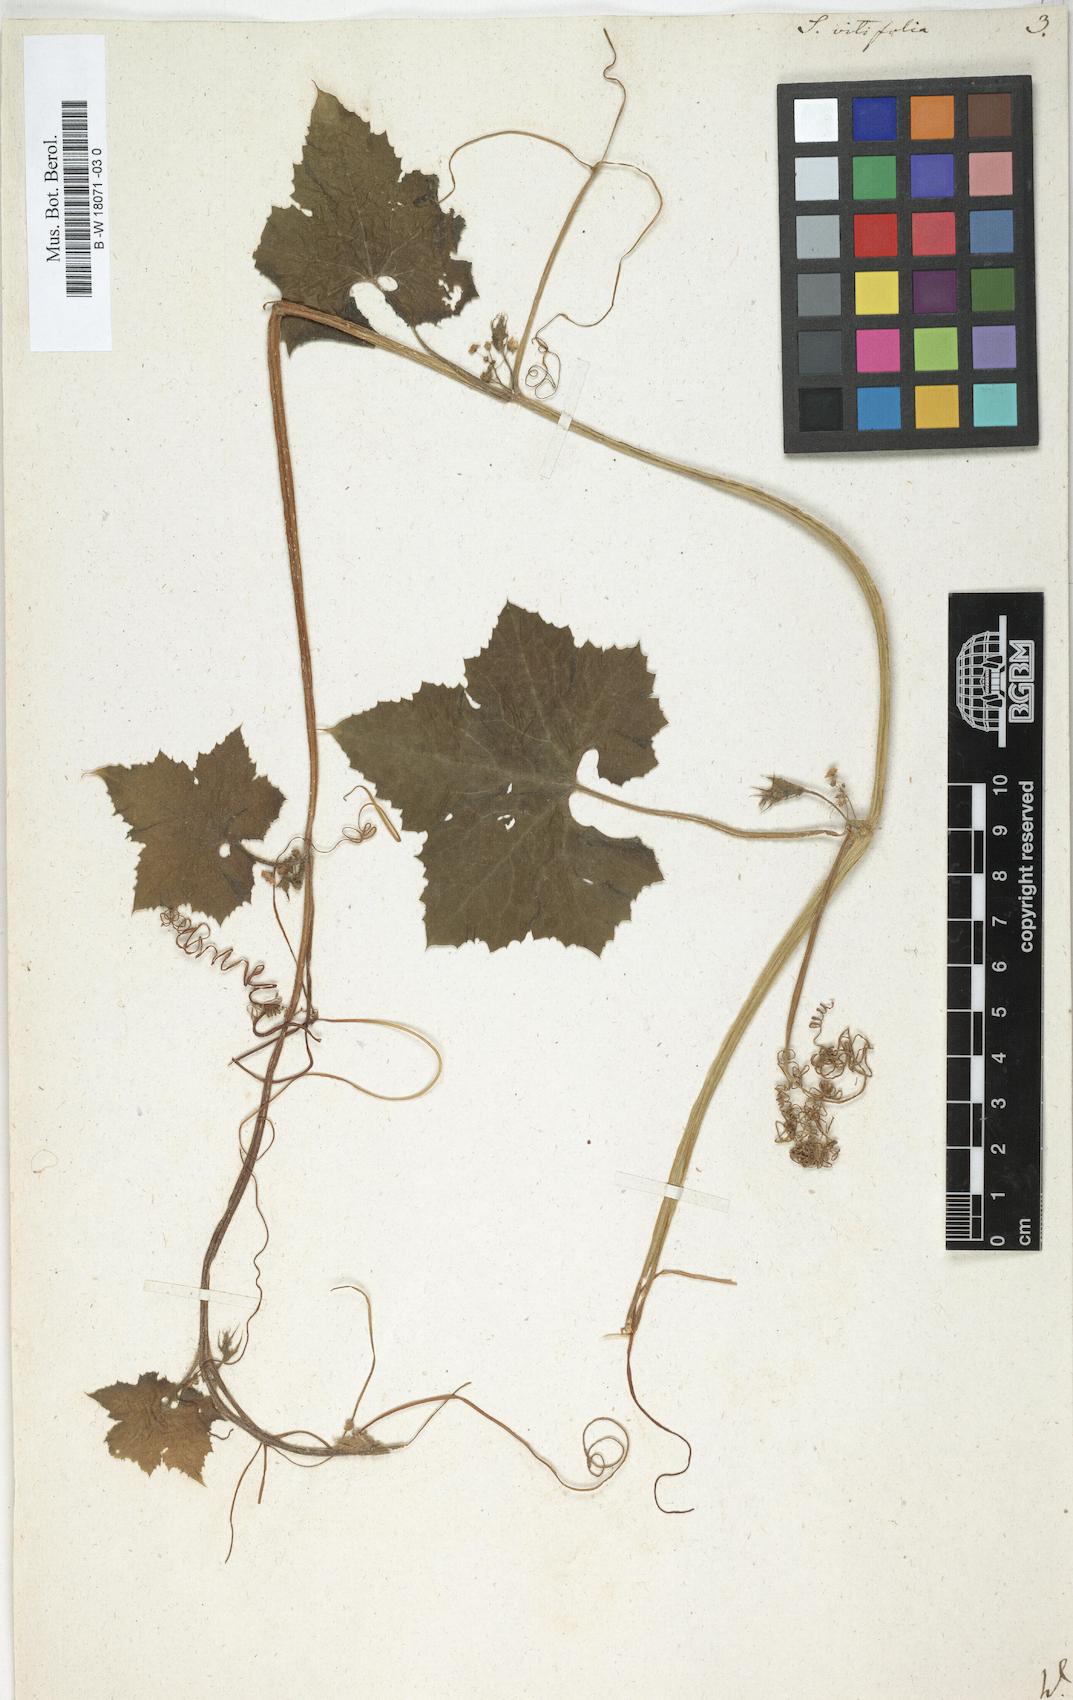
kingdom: Plantae
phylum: Tracheophyta
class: Magnoliopsida
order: Cucurbitales
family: Cucurbitaceae
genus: Sicyos
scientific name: Sicyos
